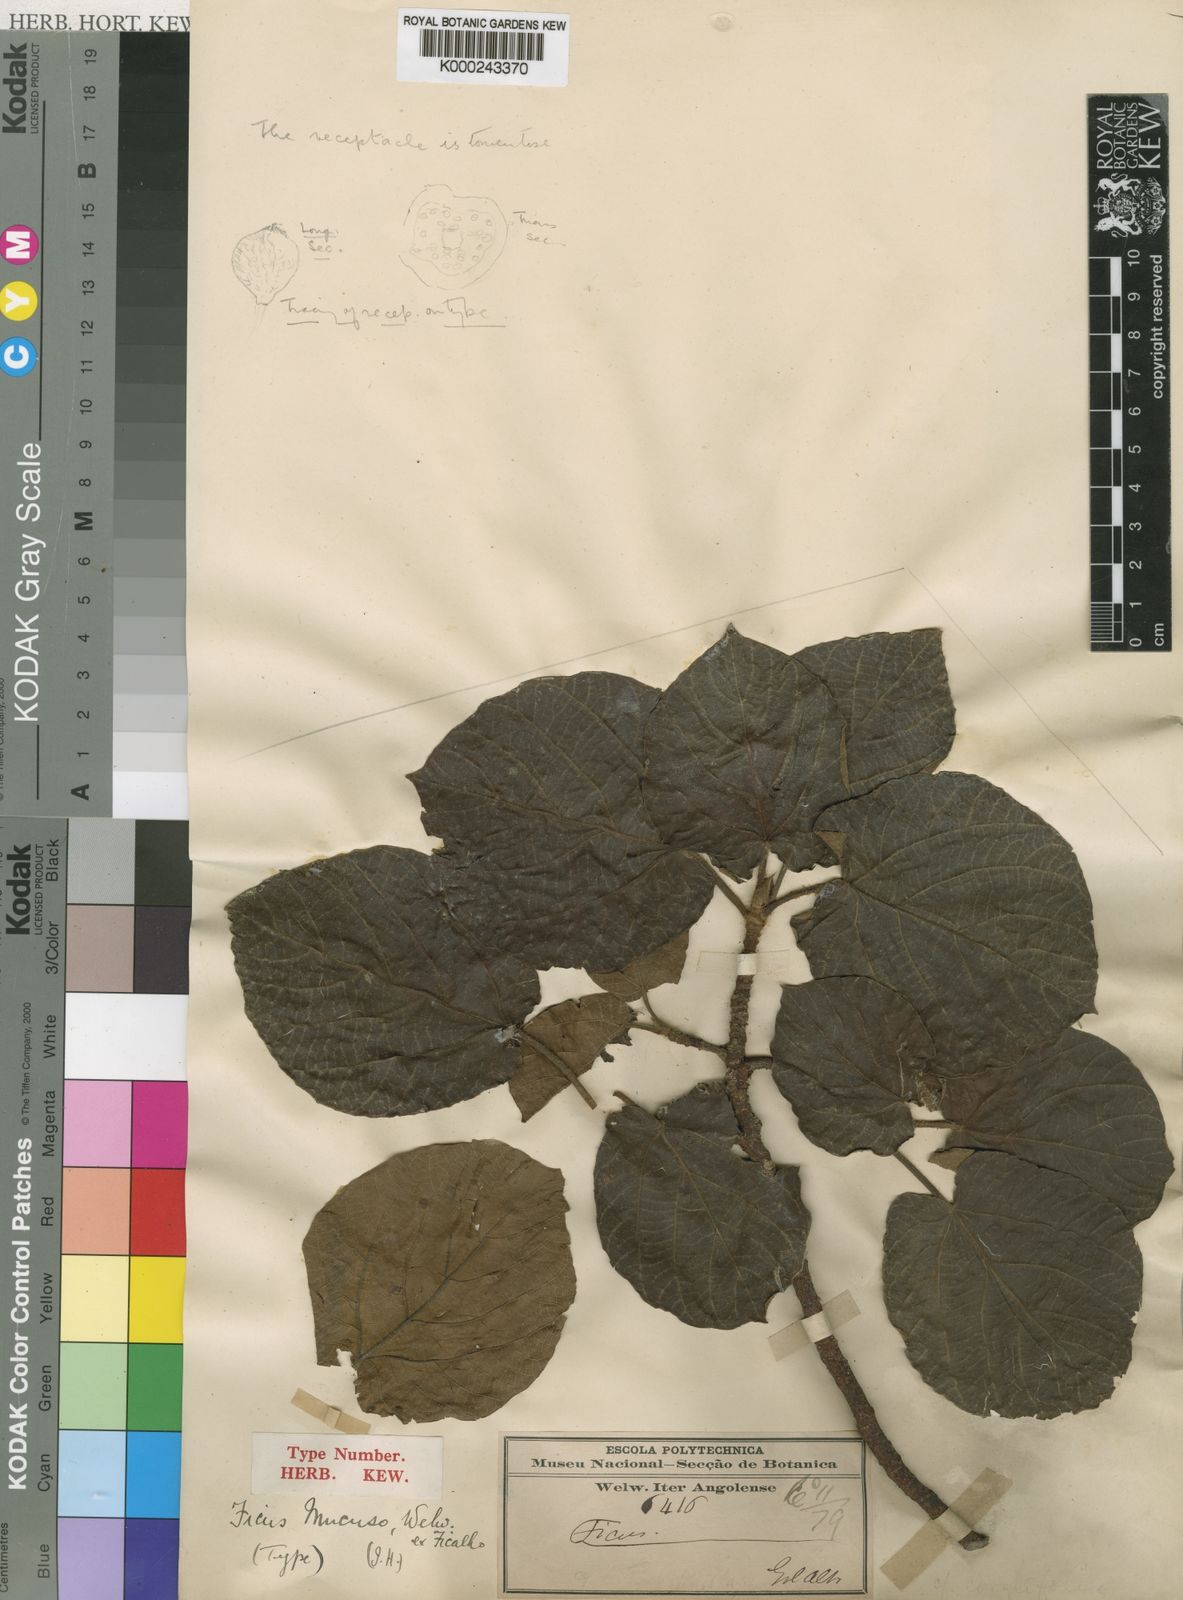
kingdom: Plantae
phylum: Tracheophyta
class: Magnoliopsida
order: Rosales
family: Moraceae
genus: Ficus
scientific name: Ficus mucuso
